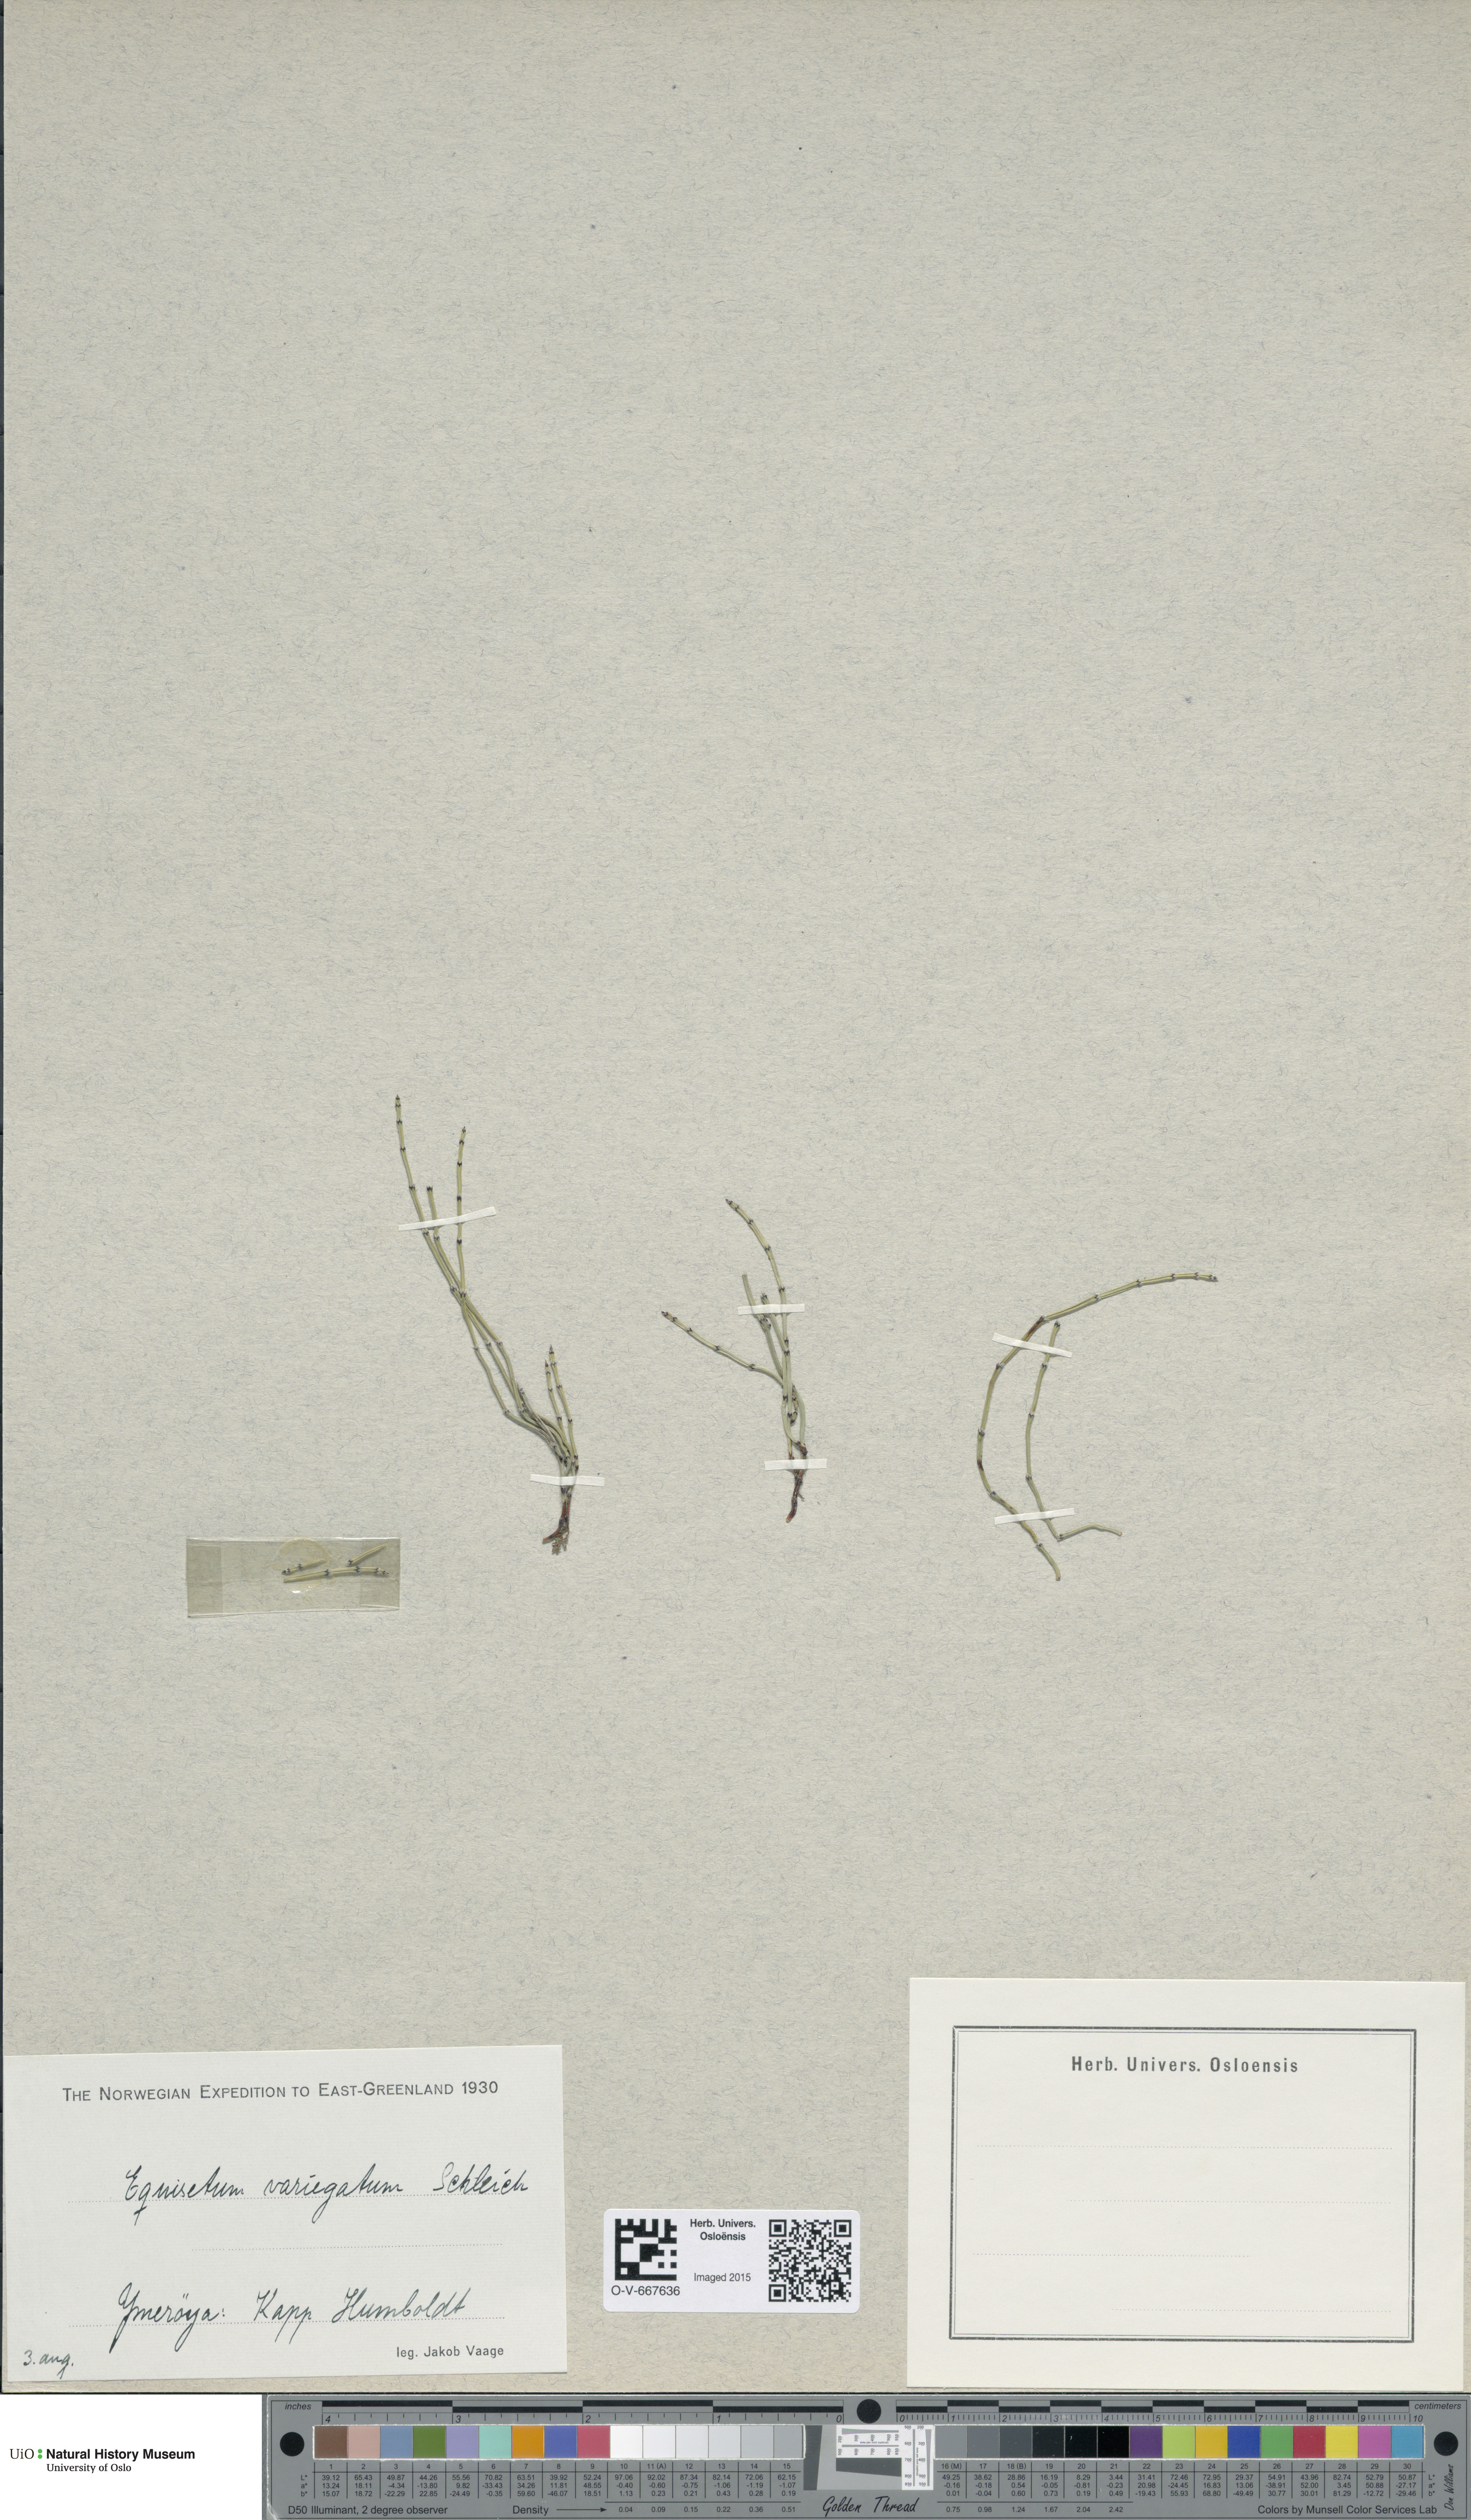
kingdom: Plantae
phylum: Tracheophyta
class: Polypodiopsida
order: Equisetales
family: Equisetaceae
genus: Equisetum
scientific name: Equisetum variegatum
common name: Variegated horsetail
